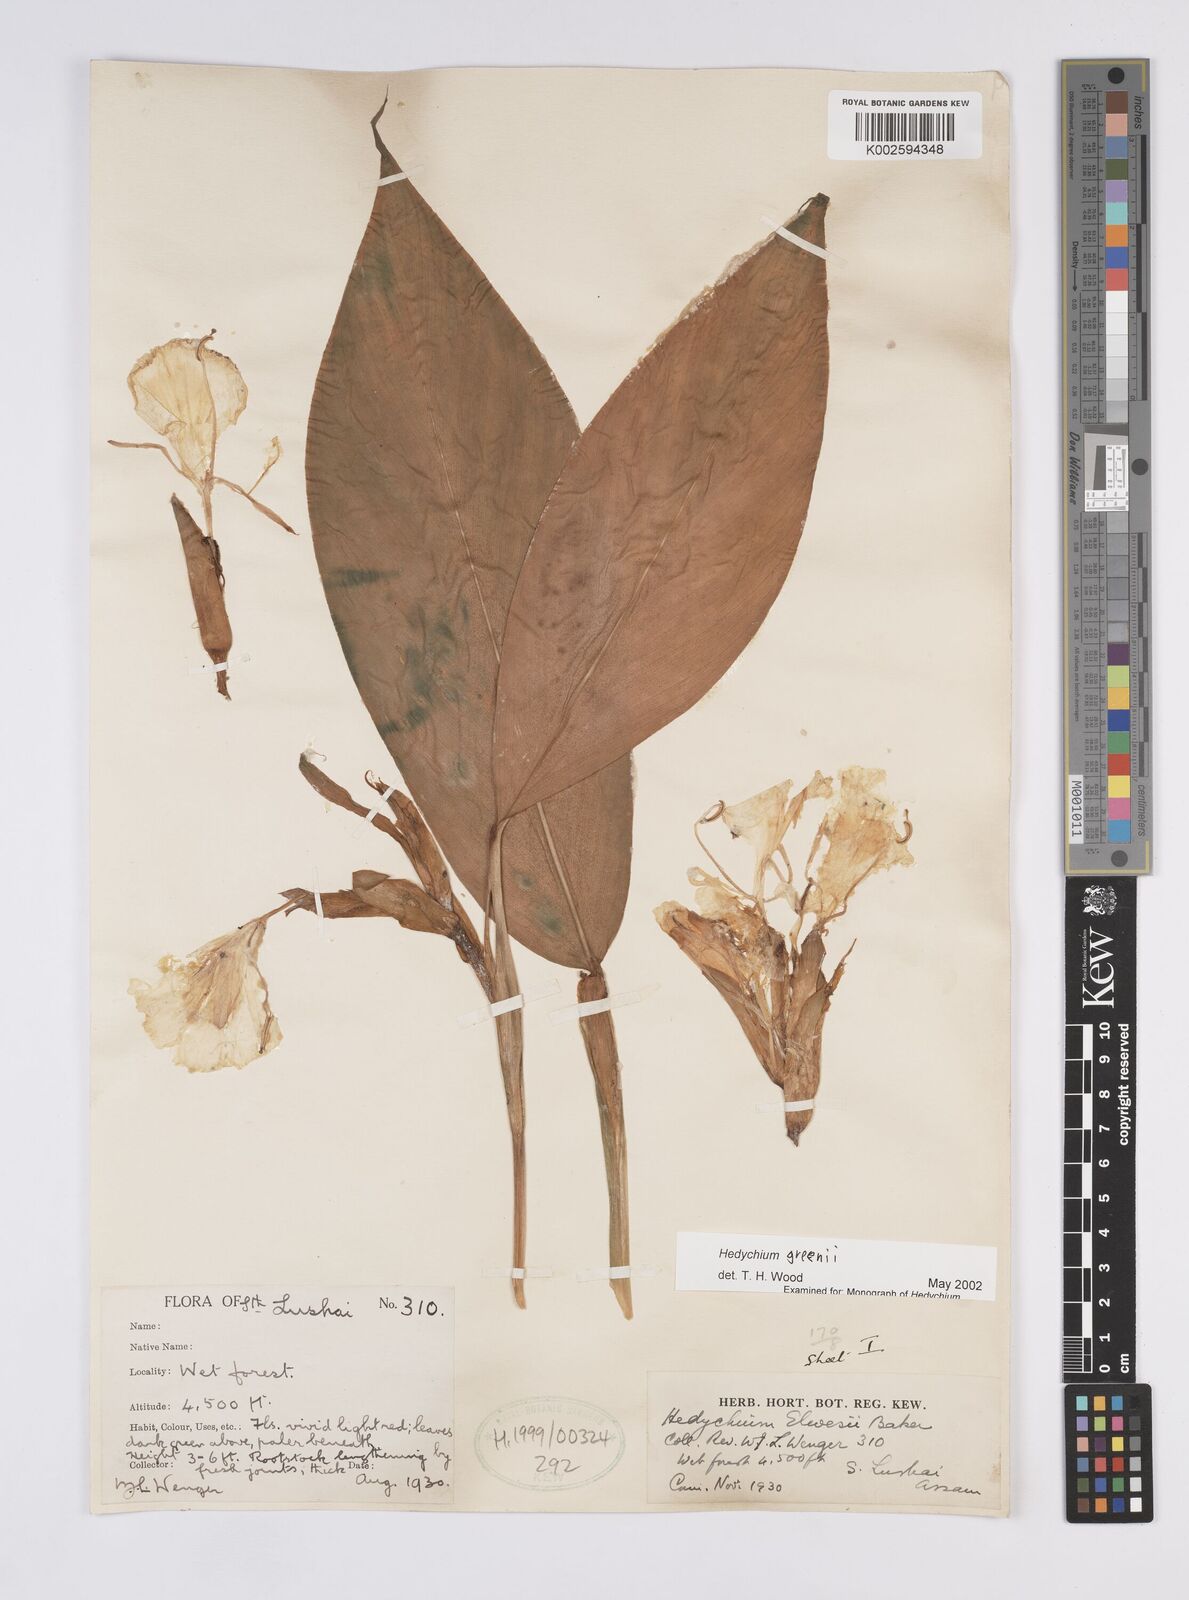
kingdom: Plantae
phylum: Tracheophyta
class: Liliopsida
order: Zingiberales
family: Zingiberaceae
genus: Hedychium
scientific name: Hedychium greenii
